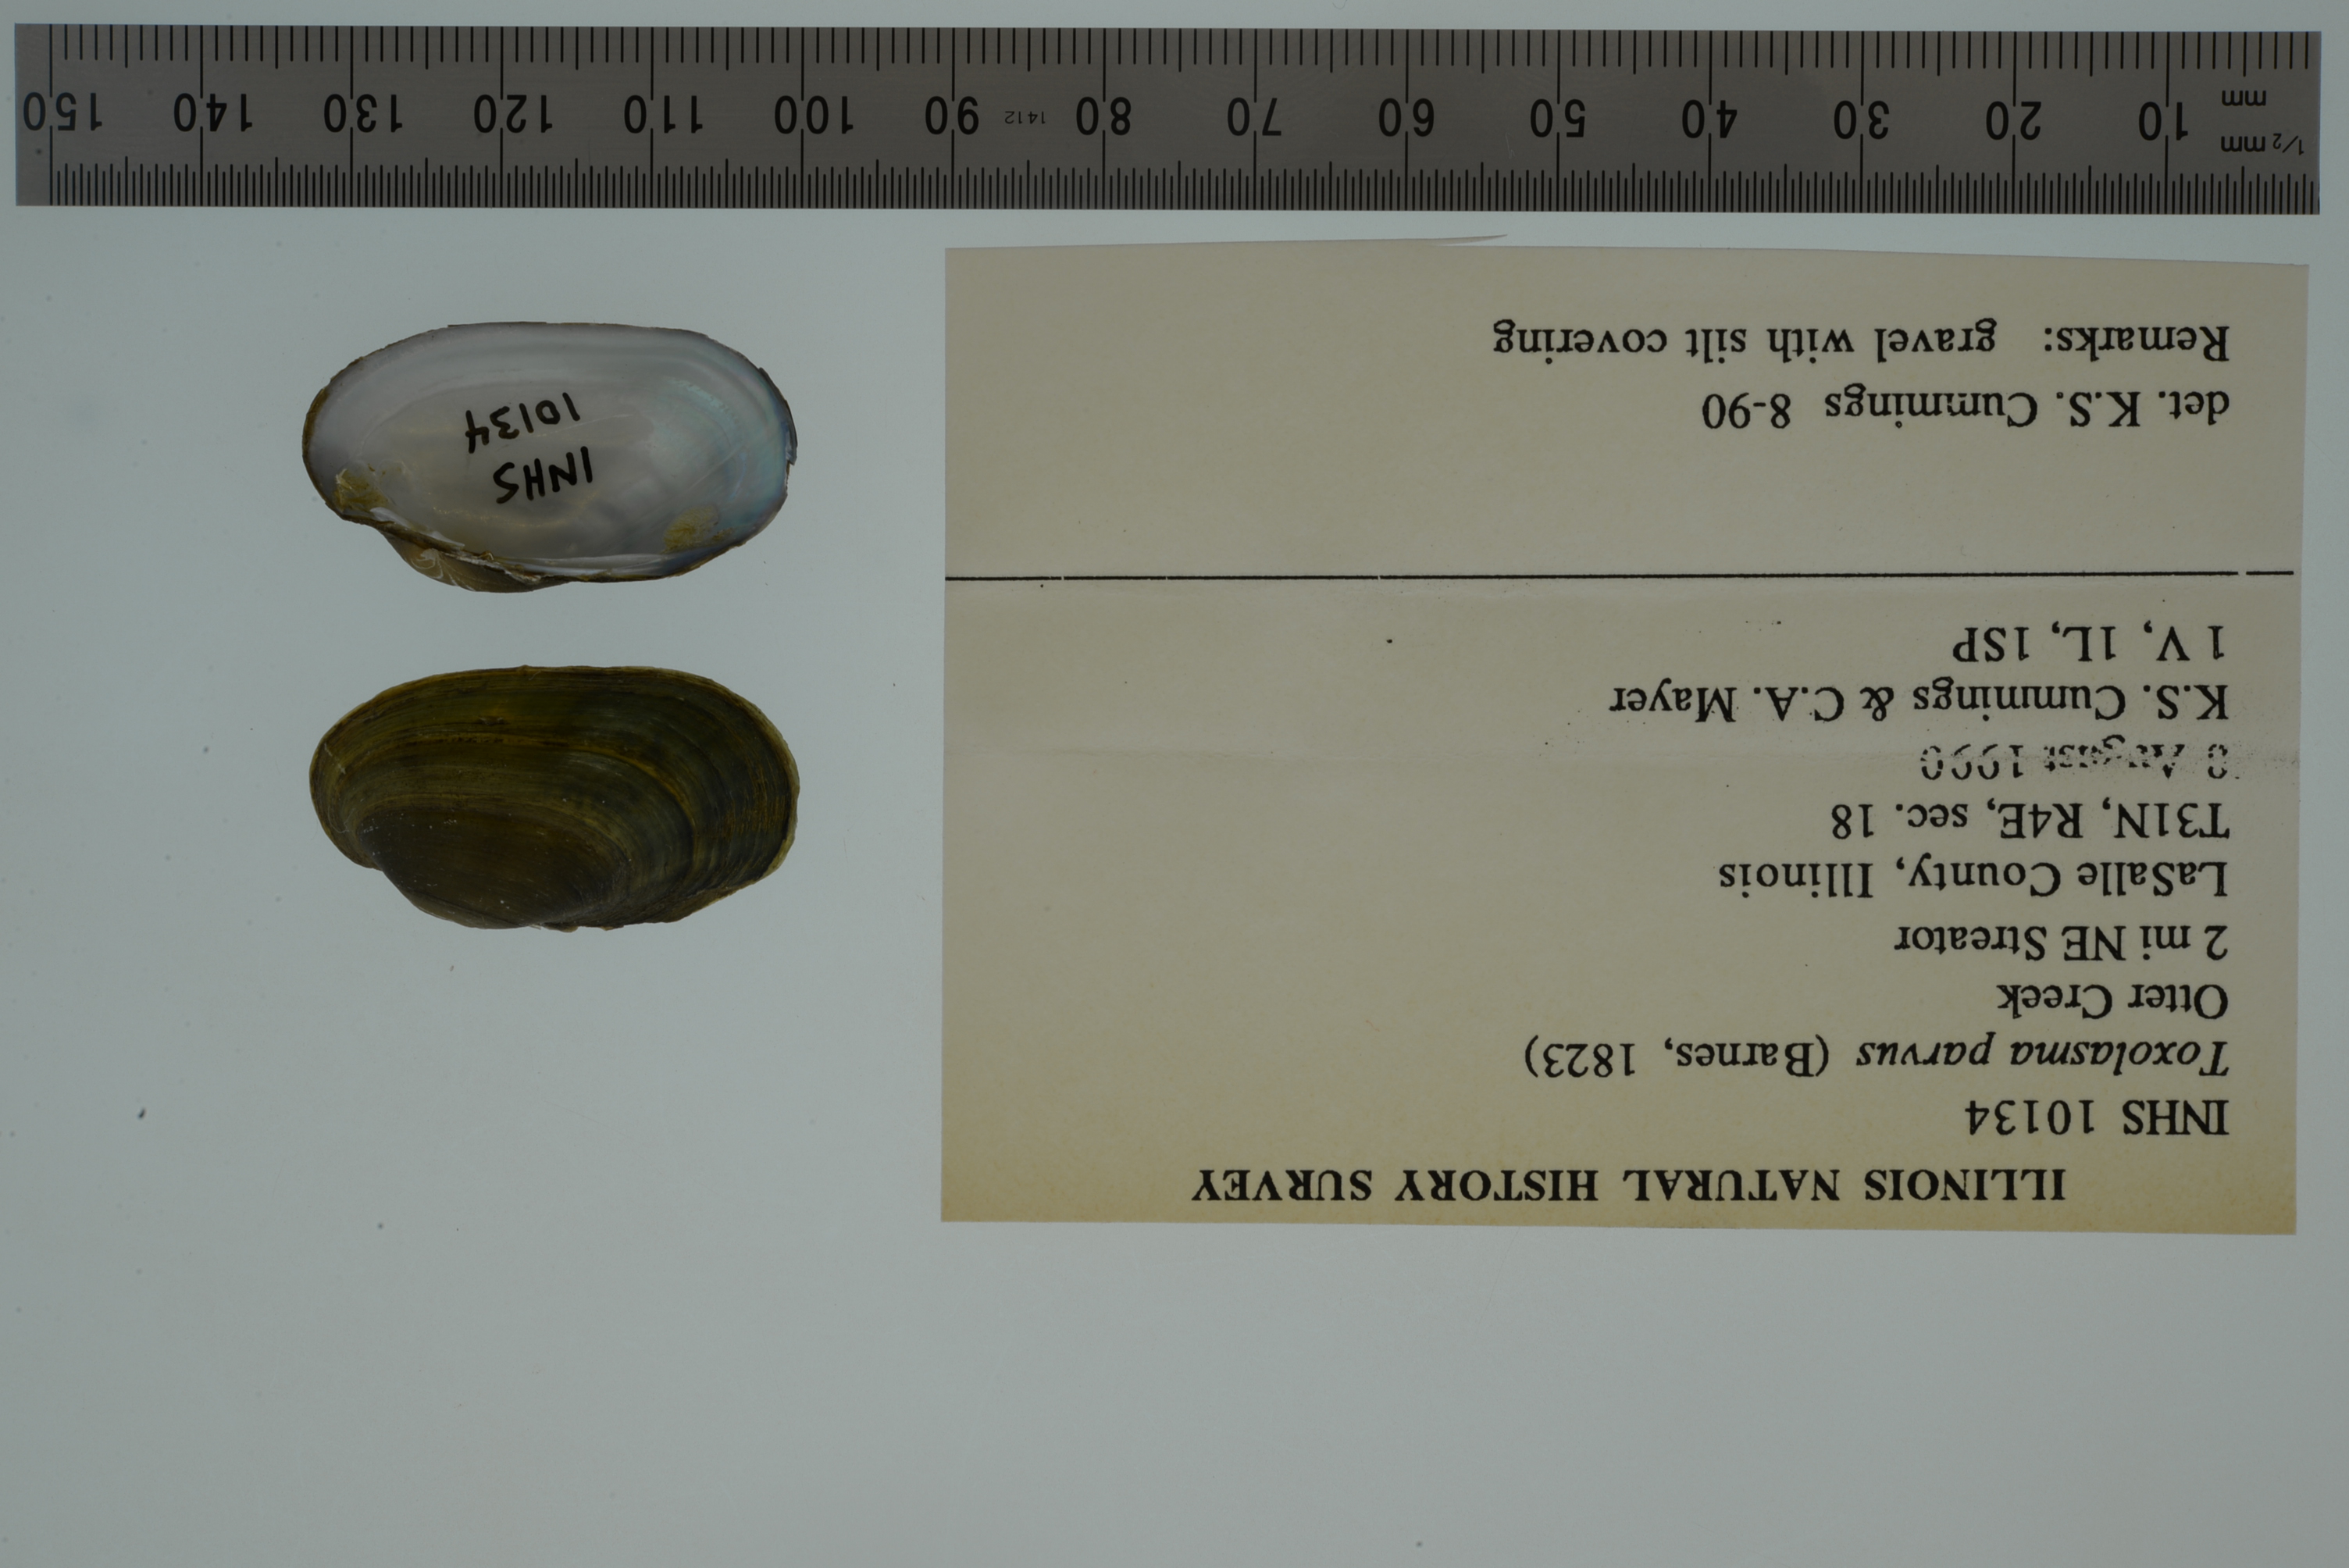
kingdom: Animalia
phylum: Mollusca
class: Bivalvia
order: Unionida
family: Unionidae
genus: Toxolasma
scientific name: Toxolasma parvum
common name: Lilliput
